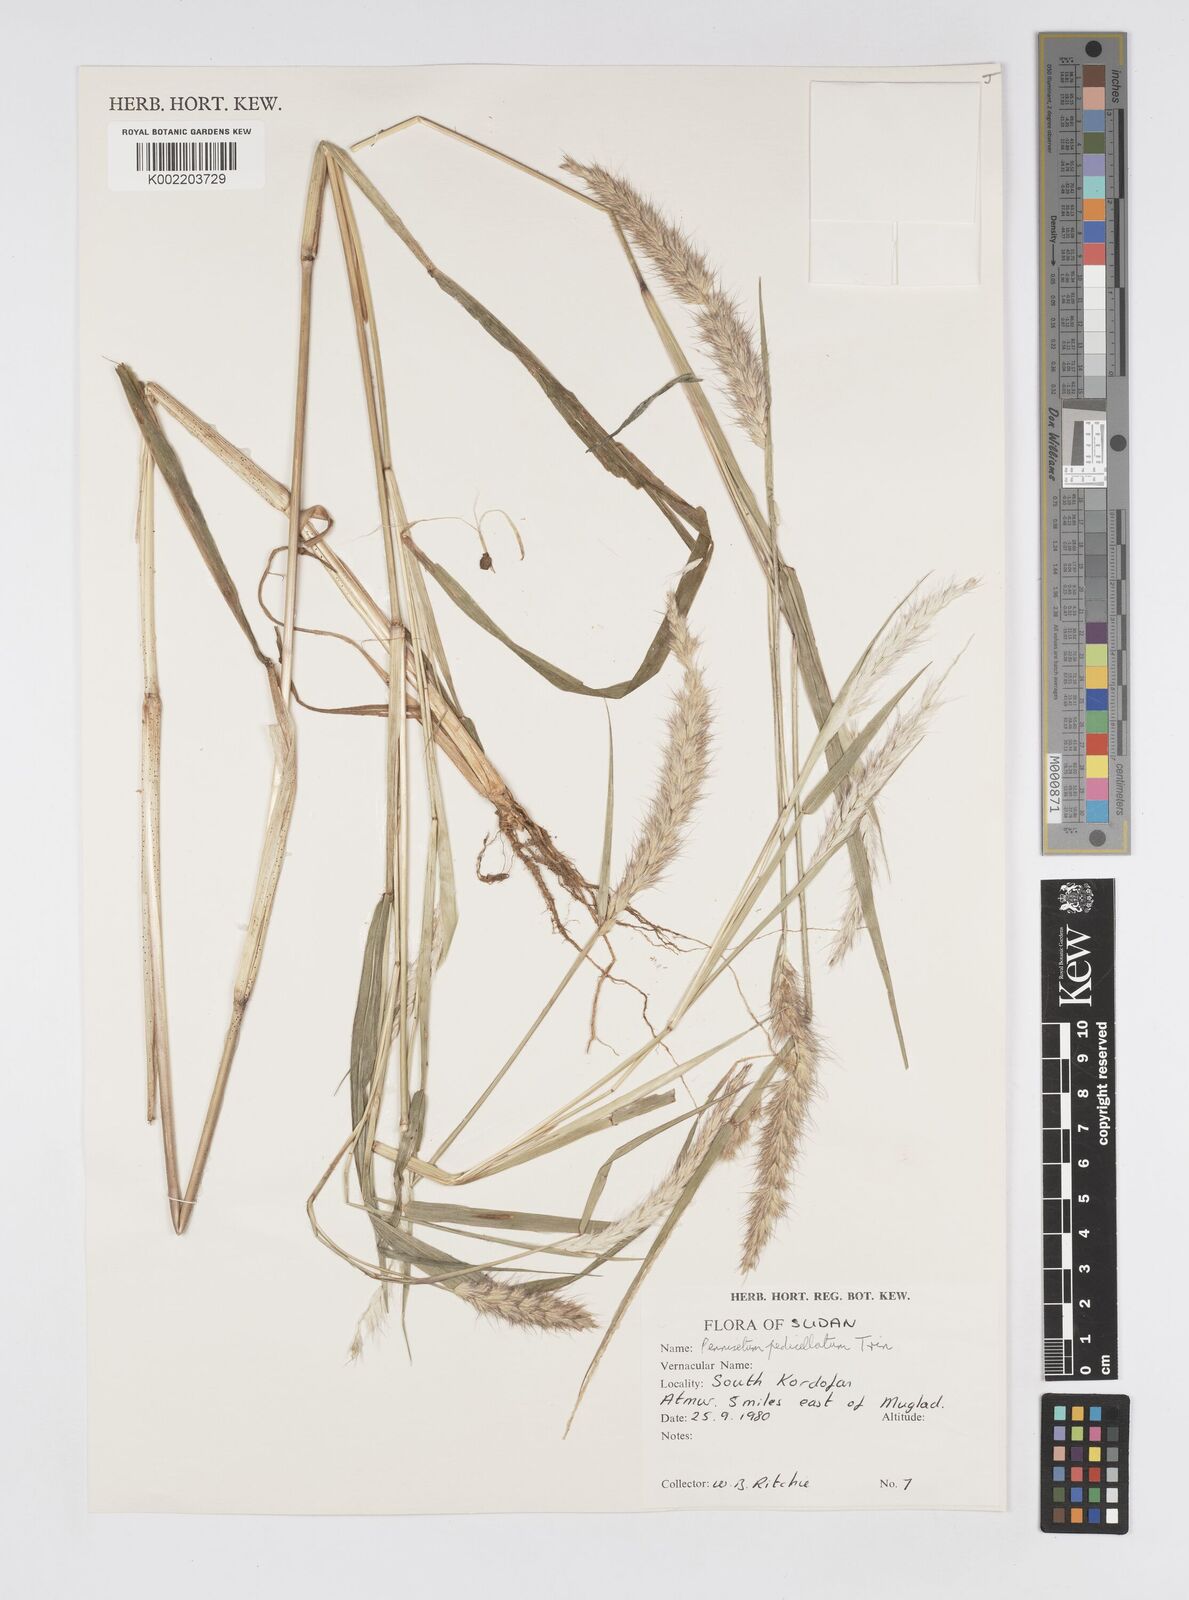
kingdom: Plantae
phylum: Tracheophyta
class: Liliopsida
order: Poales
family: Poaceae
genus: Cenchrus
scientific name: Cenchrus pedicellatus
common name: Hairy fountain grass
